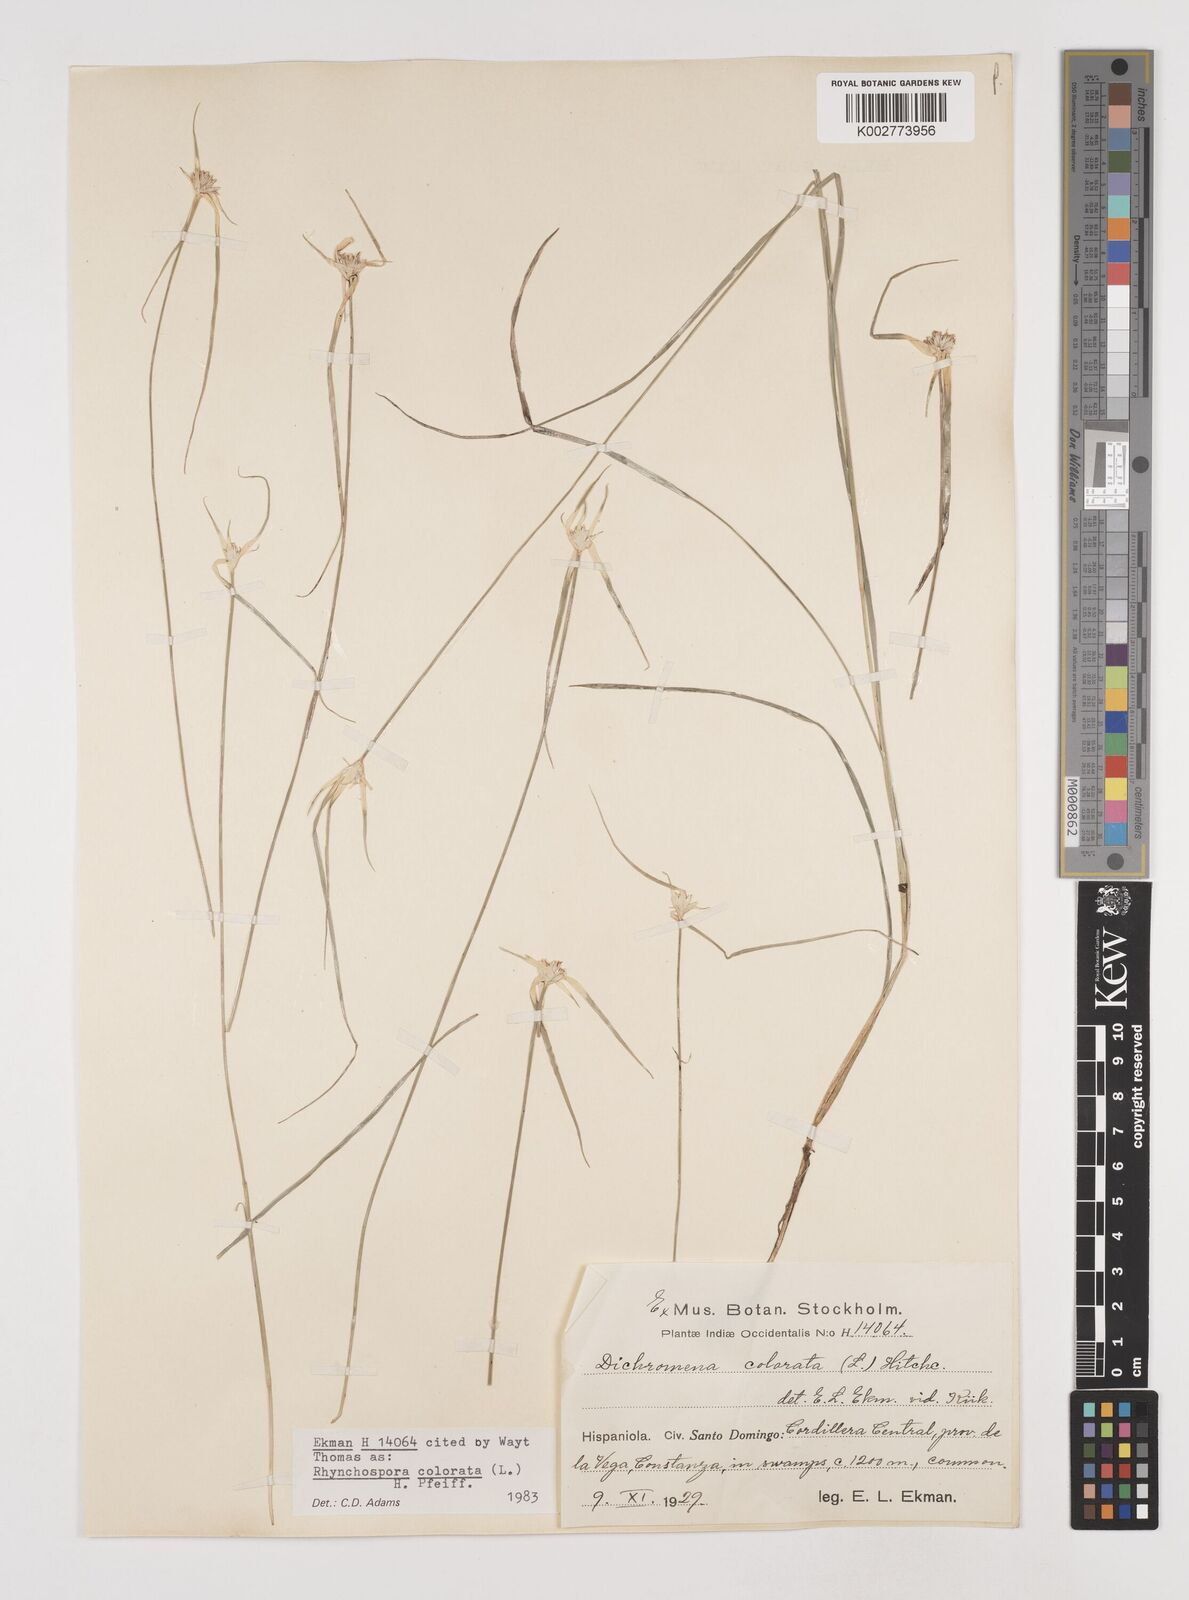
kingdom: Plantae
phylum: Tracheophyta
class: Liliopsida
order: Poales
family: Cyperaceae
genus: Rhynchospora
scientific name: Rhynchospora colorata
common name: Star sedge
